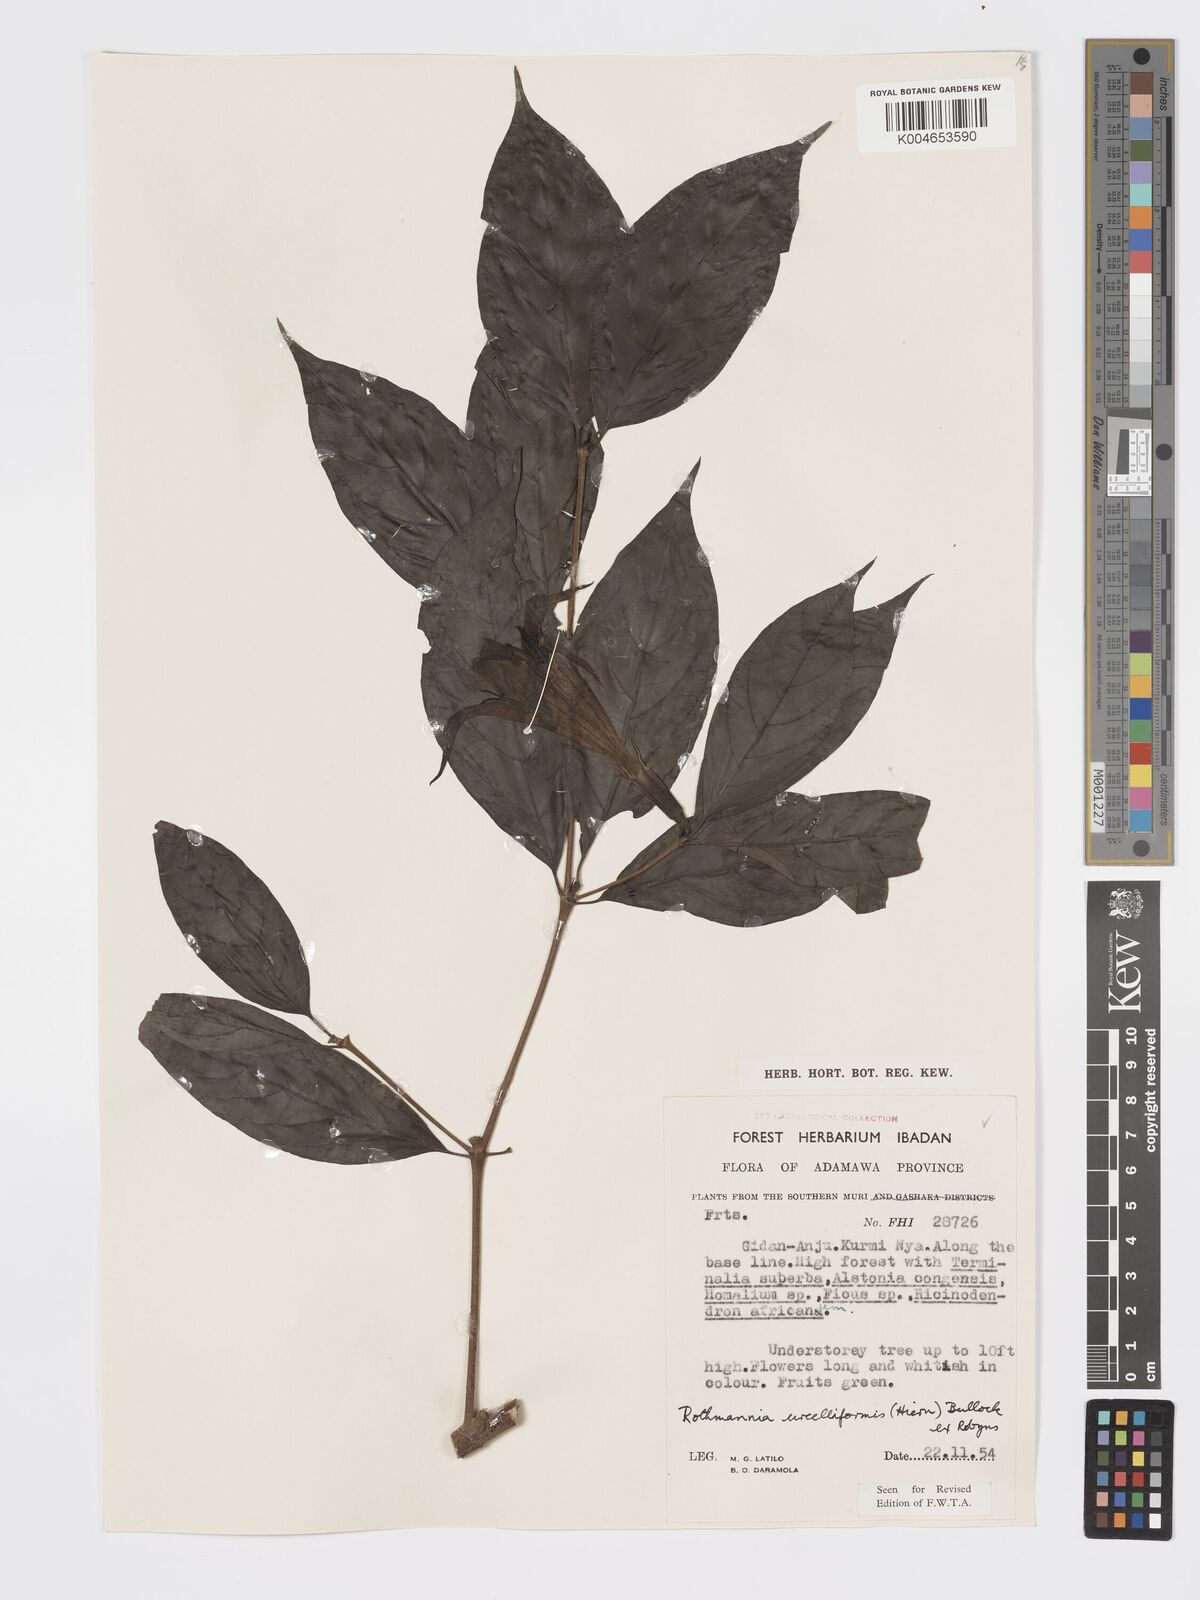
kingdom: Plantae
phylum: Tracheophyta
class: Magnoliopsida
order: Gentianales
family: Rubiaceae
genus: Rothmannia
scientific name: Rothmannia urcelliformis
